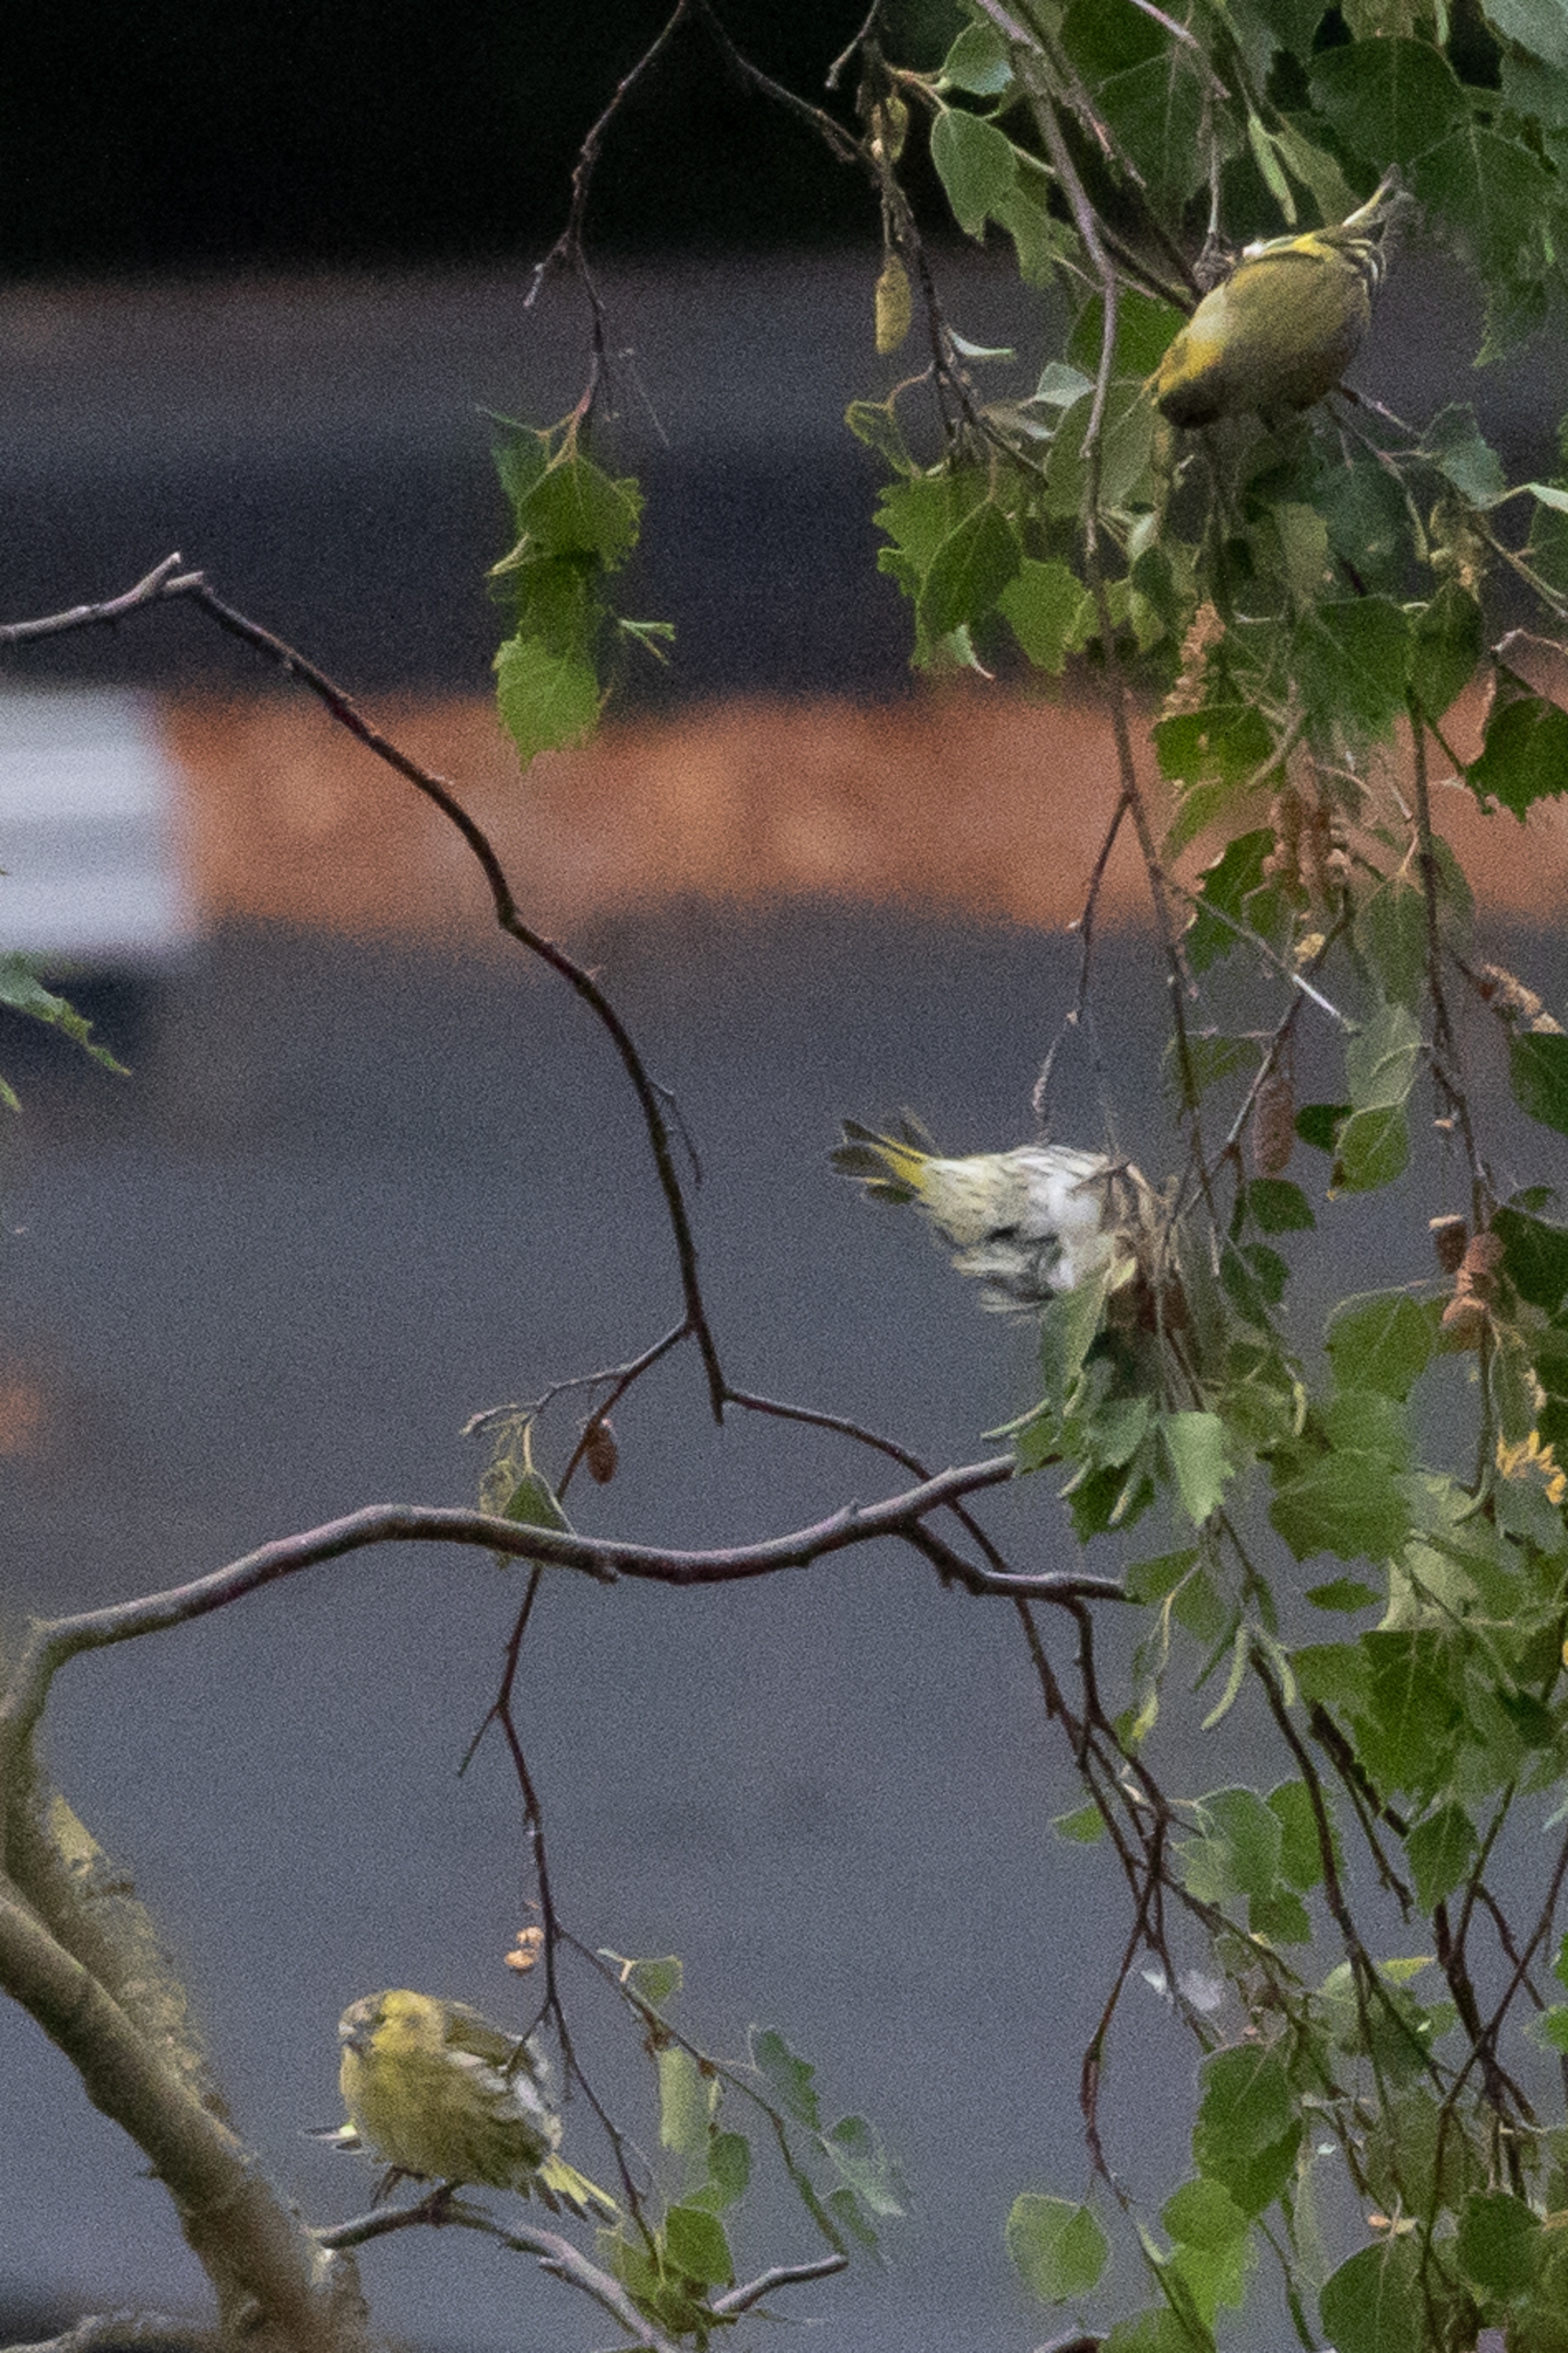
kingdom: Animalia
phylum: Chordata
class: Aves
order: Passeriformes
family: Fringillidae
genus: Spinus
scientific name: Spinus spinus
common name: Grønsisken
